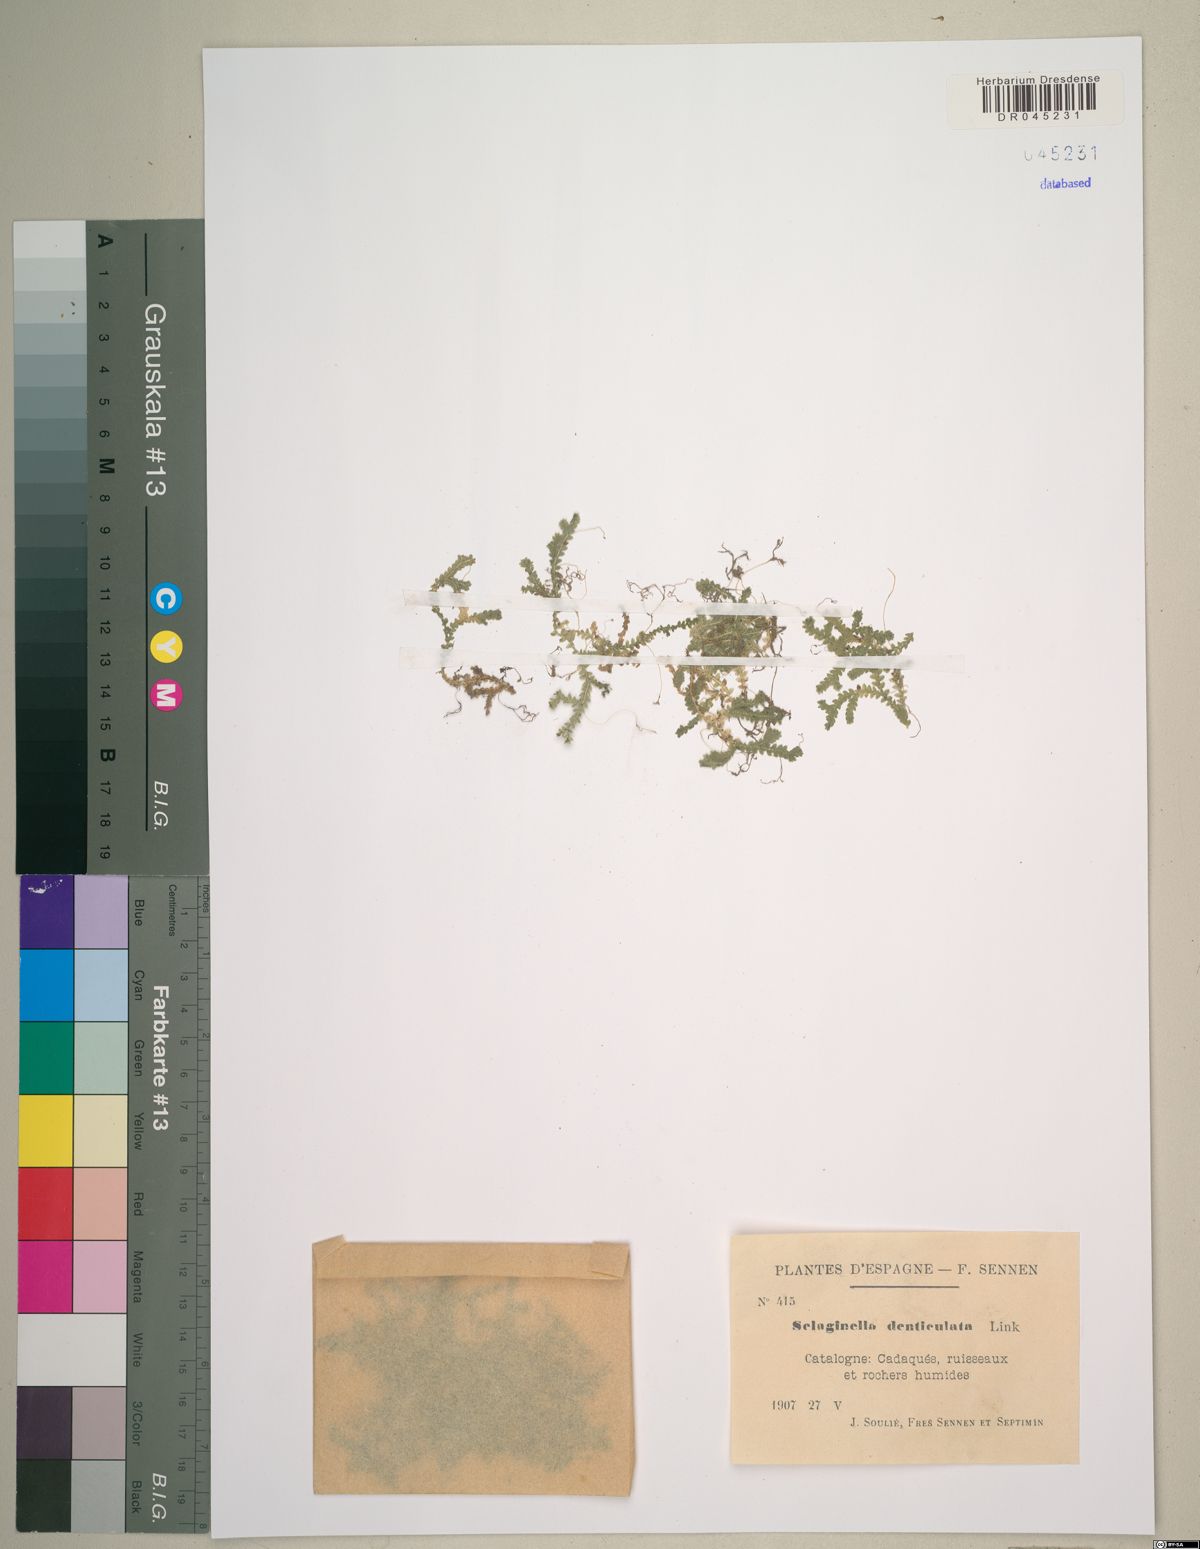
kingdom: Plantae
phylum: Tracheophyta
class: Lycopodiopsida
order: Selaginellales
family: Selaginellaceae
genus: Selaginella
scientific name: Selaginella denticulata
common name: Toothed-leaved clubmoss
